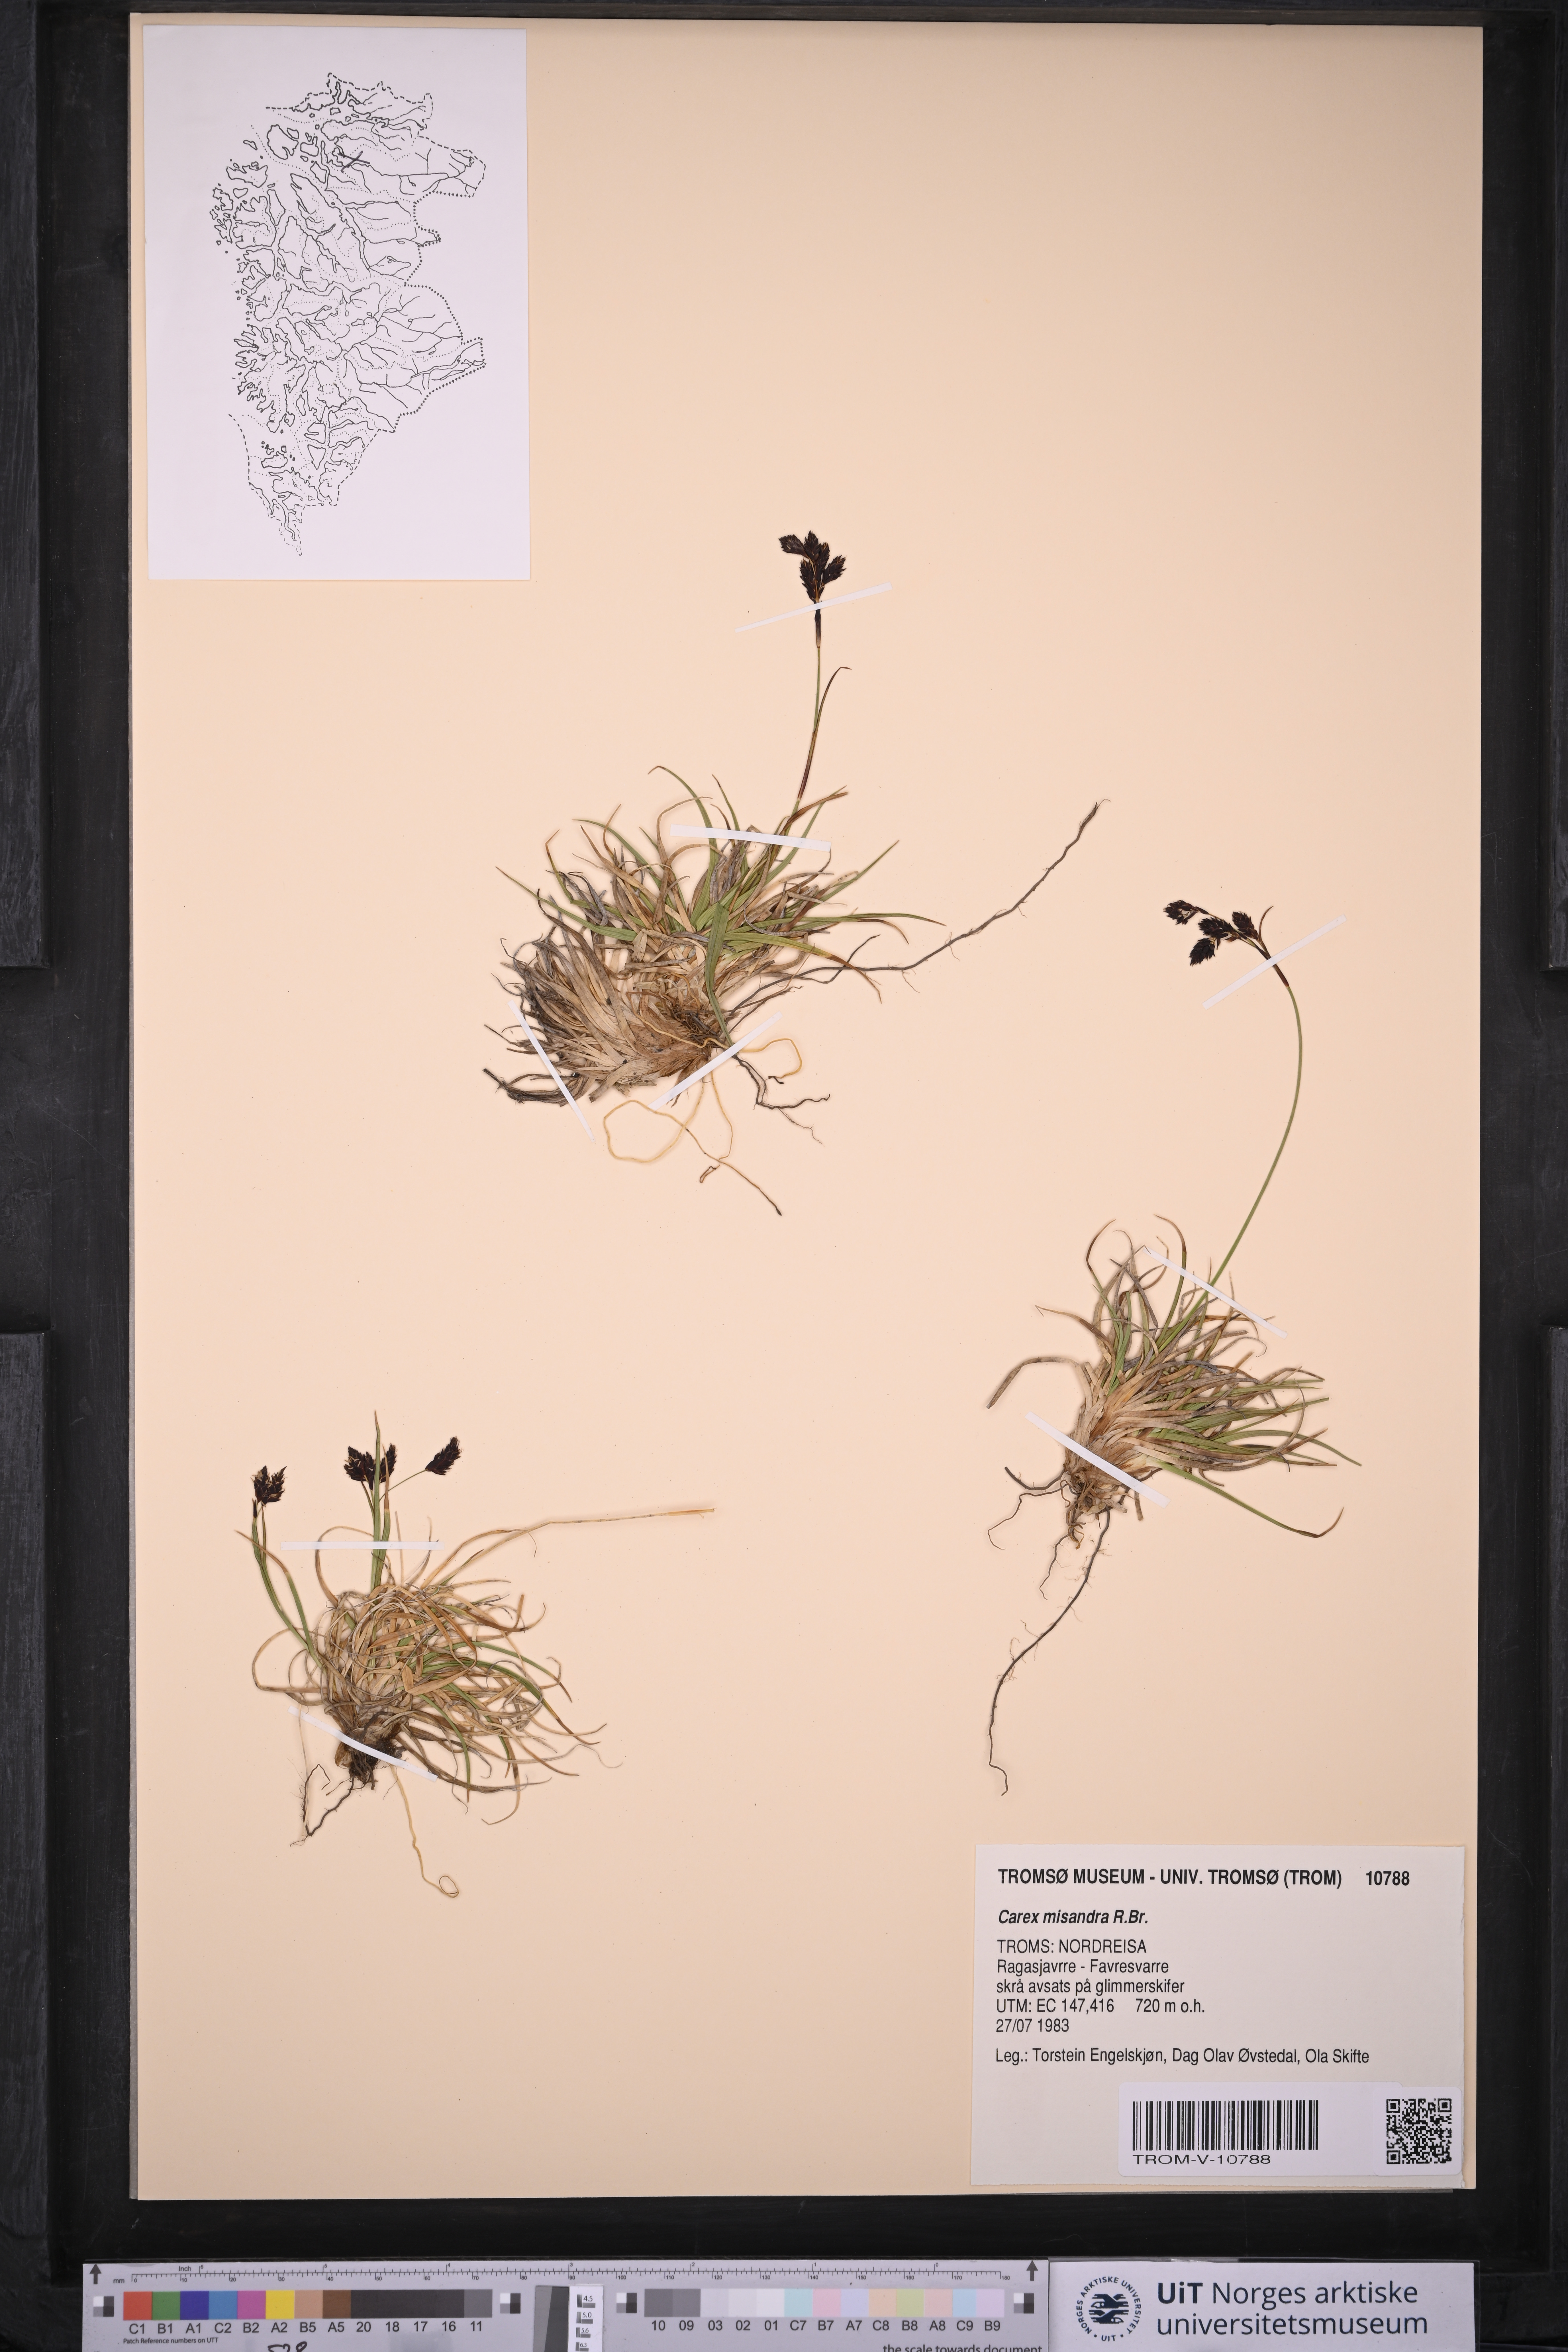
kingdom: Plantae
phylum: Tracheophyta
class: Liliopsida
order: Poales
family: Cyperaceae
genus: Carex
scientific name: Carex fuliginosa
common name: Few-flowered sedge
